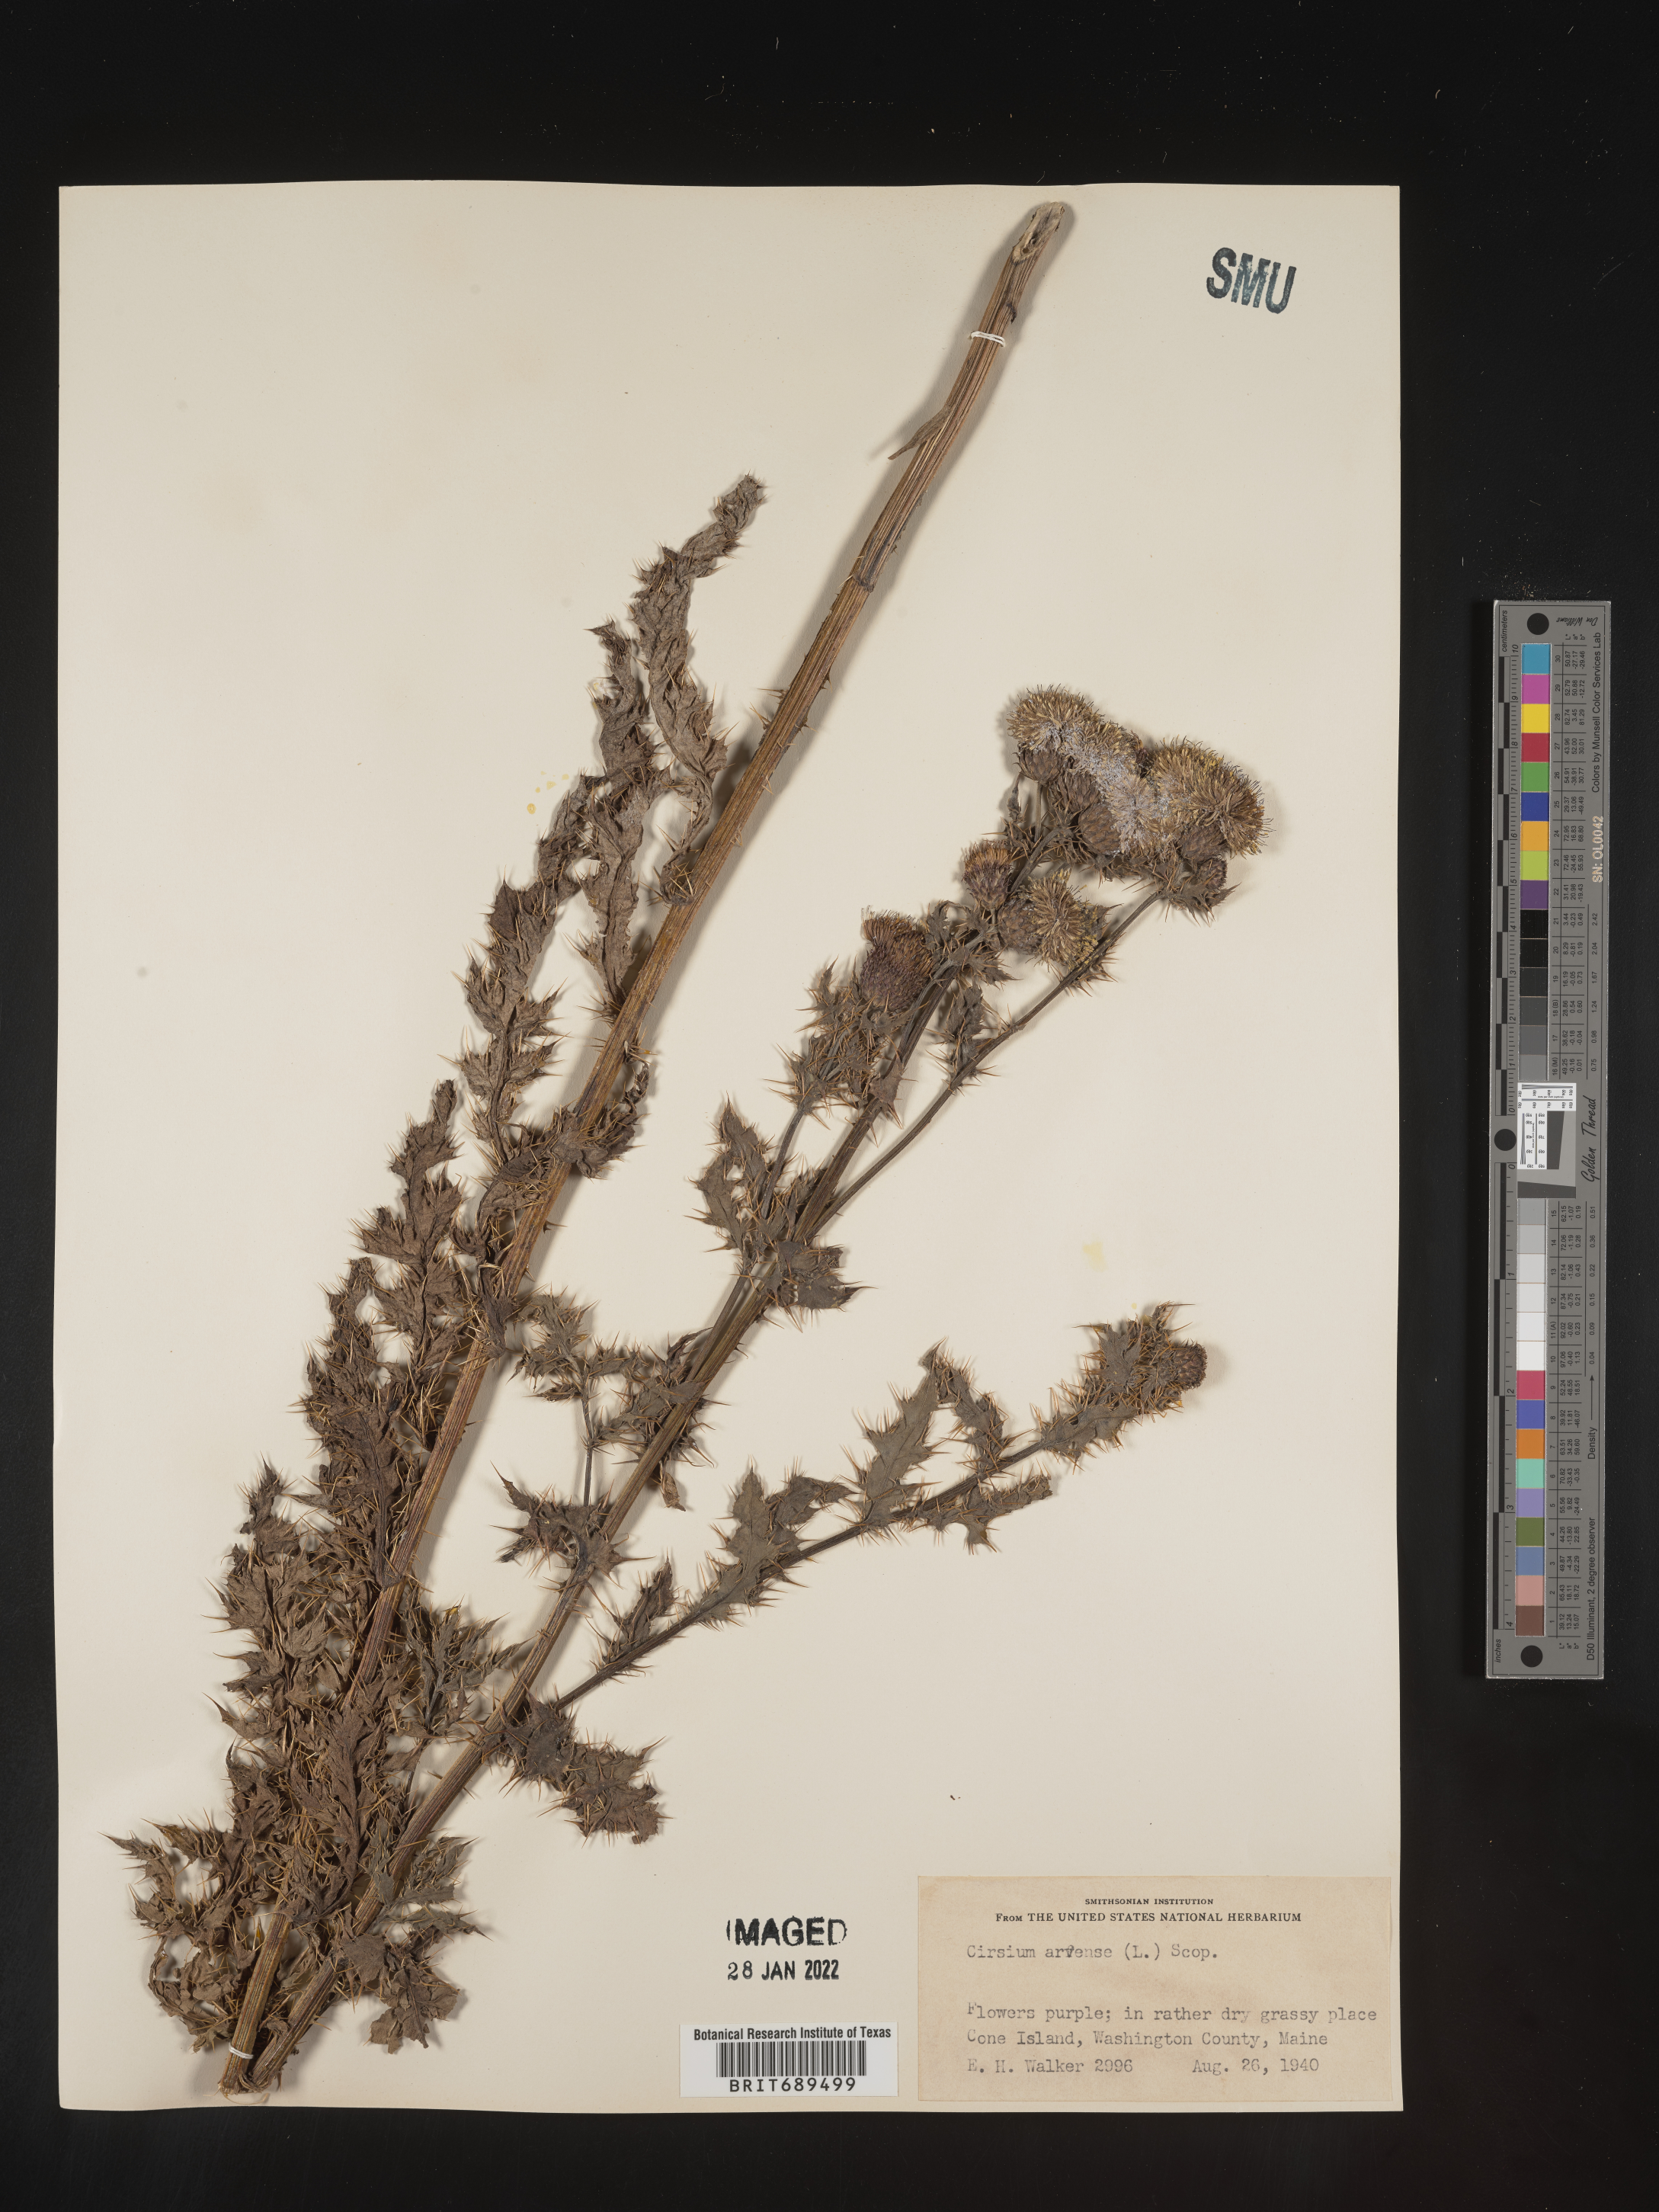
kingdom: Plantae
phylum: Tracheophyta
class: Magnoliopsida
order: Asterales
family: Asteraceae
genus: Cirsium
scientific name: Cirsium arvense
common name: Creeping thistle
